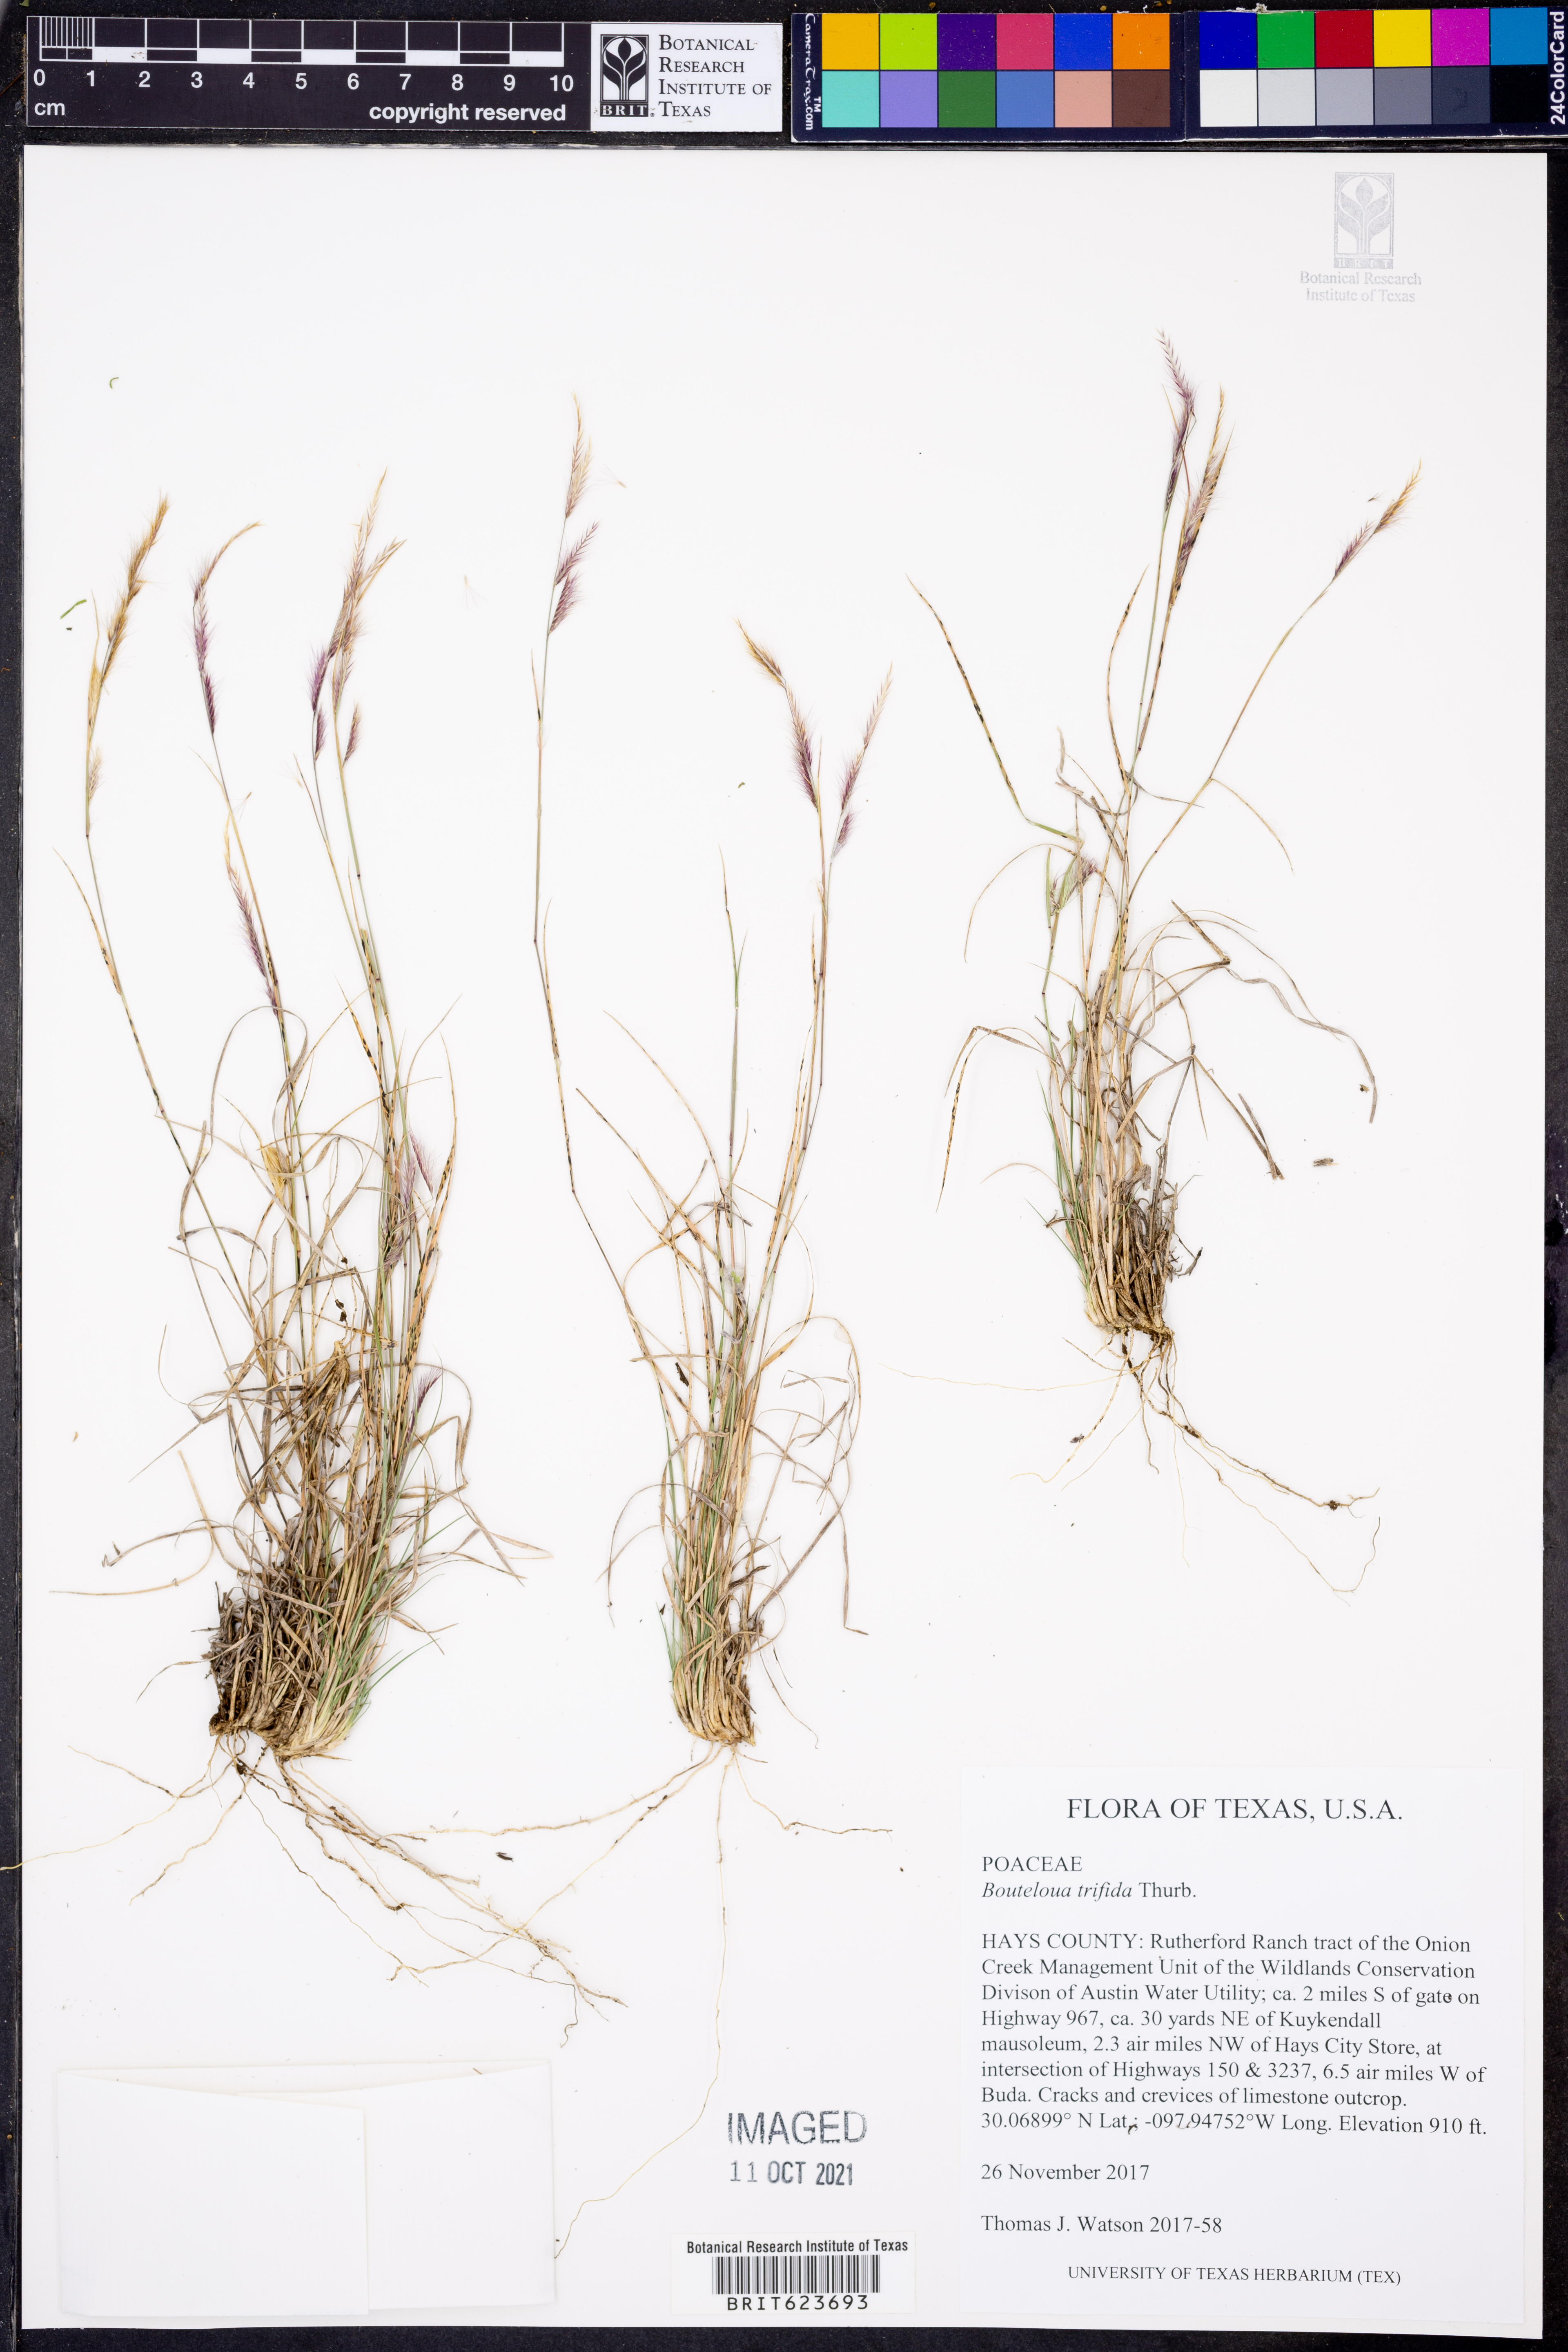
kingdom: Plantae
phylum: Tracheophyta
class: Liliopsida
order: Poales
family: Poaceae
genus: Bouteloua
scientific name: Bouteloua trifida
